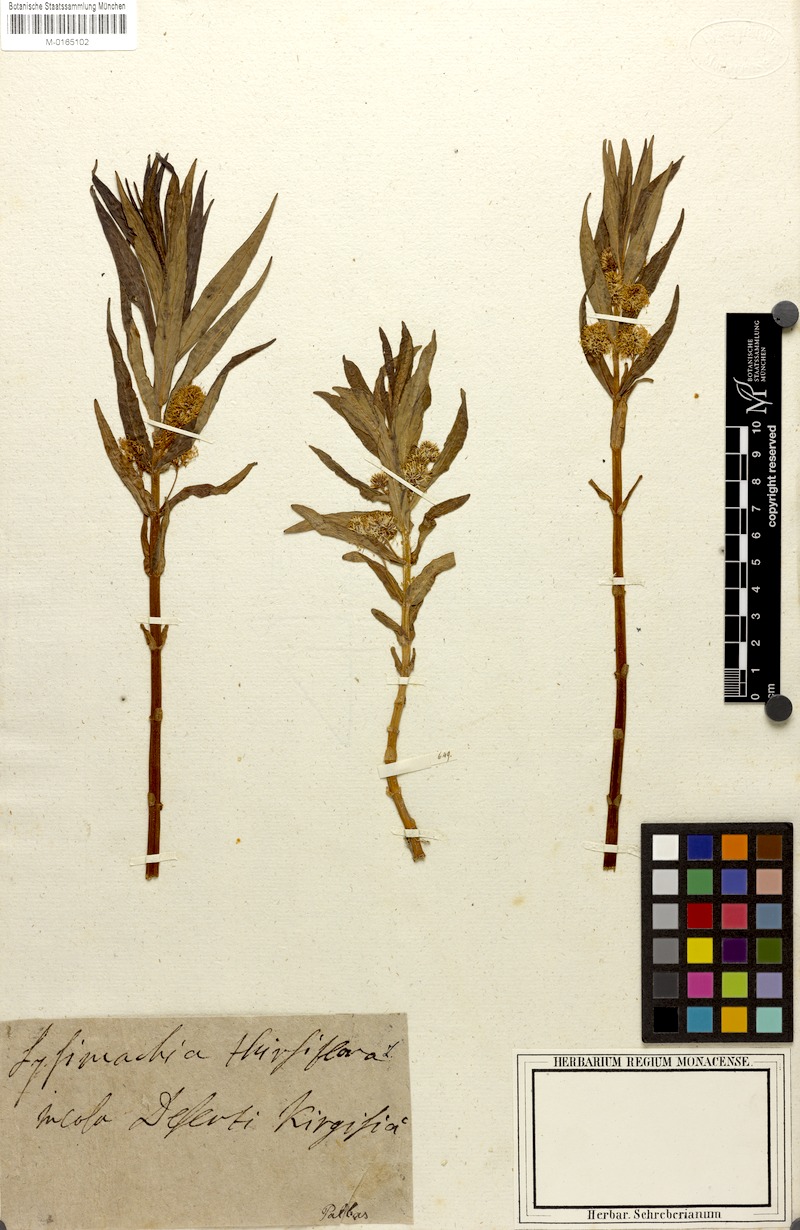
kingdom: Plantae
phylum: Tracheophyta
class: Magnoliopsida
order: Ericales
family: Primulaceae
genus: Lysimachia
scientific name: Lysimachia thyrsiflora
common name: Tufted loosestrife
